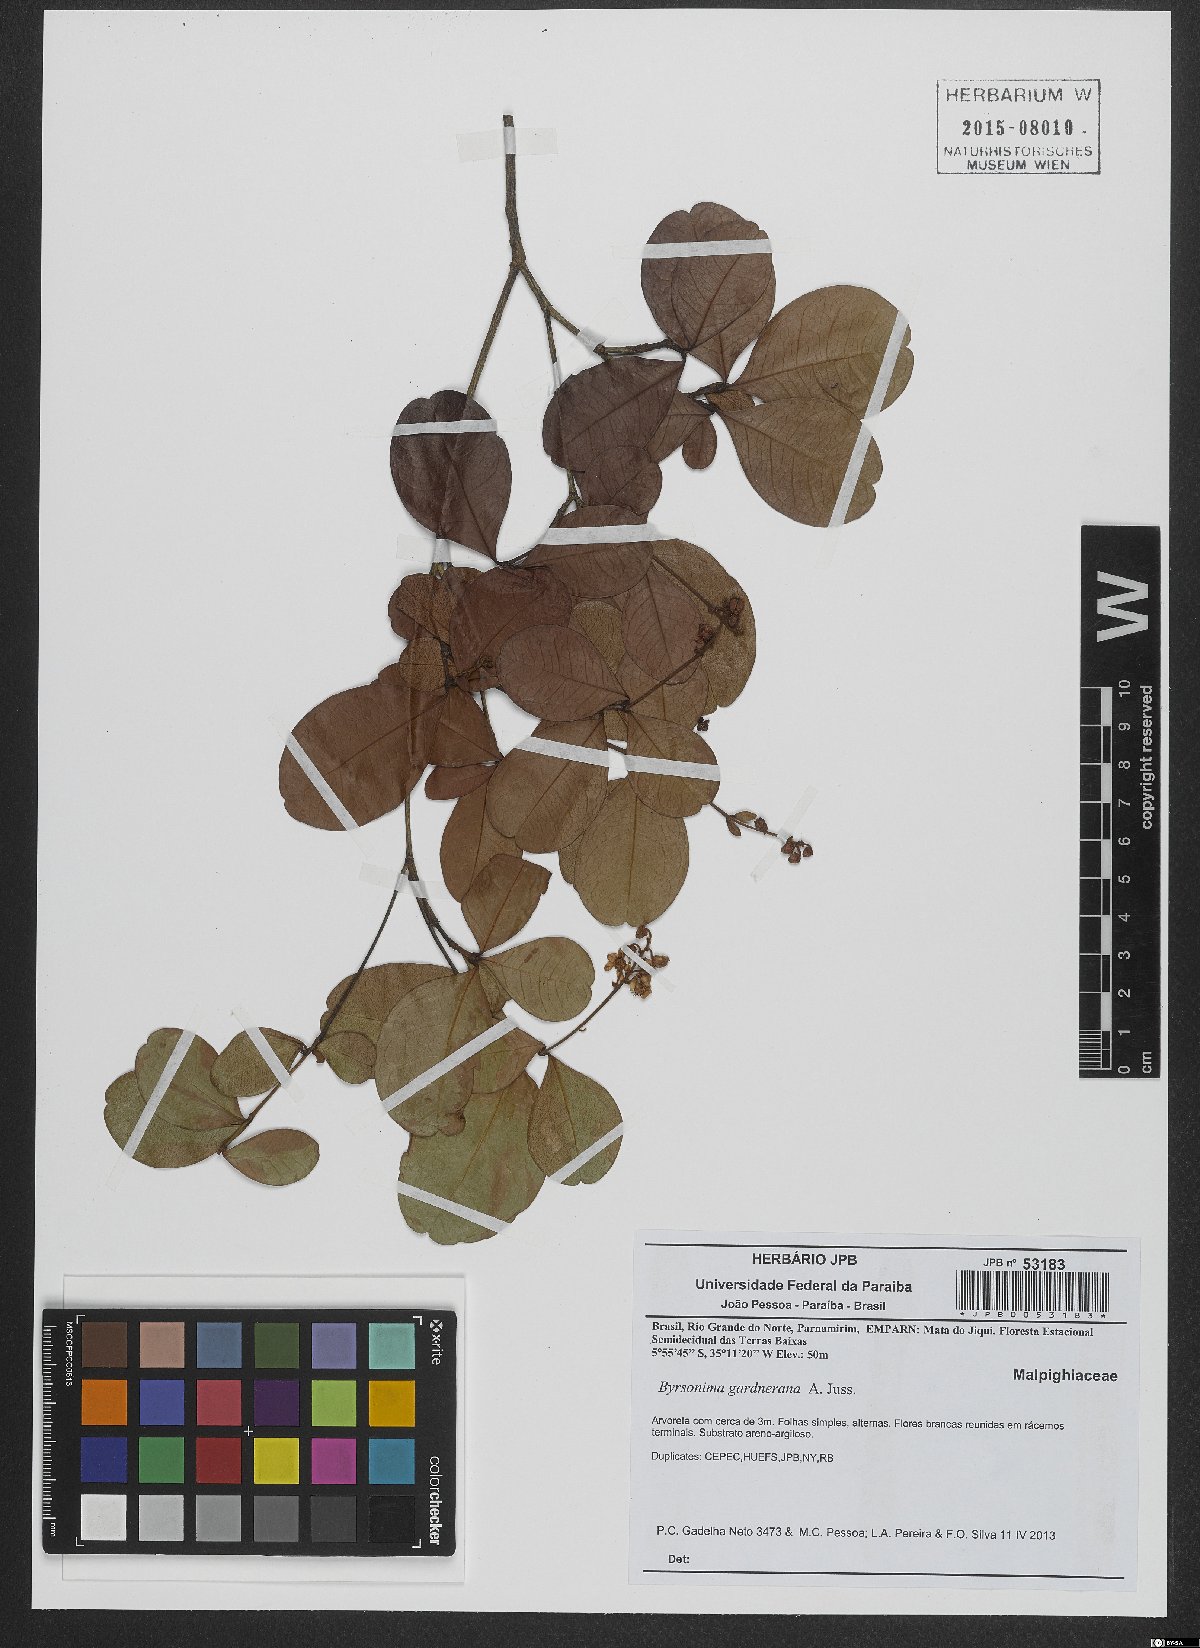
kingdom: Plantae
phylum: Tracheophyta
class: Magnoliopsida
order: Malpighiales
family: Malpighiaceae
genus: Byrsonima
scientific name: Byrsonima gardneriana
